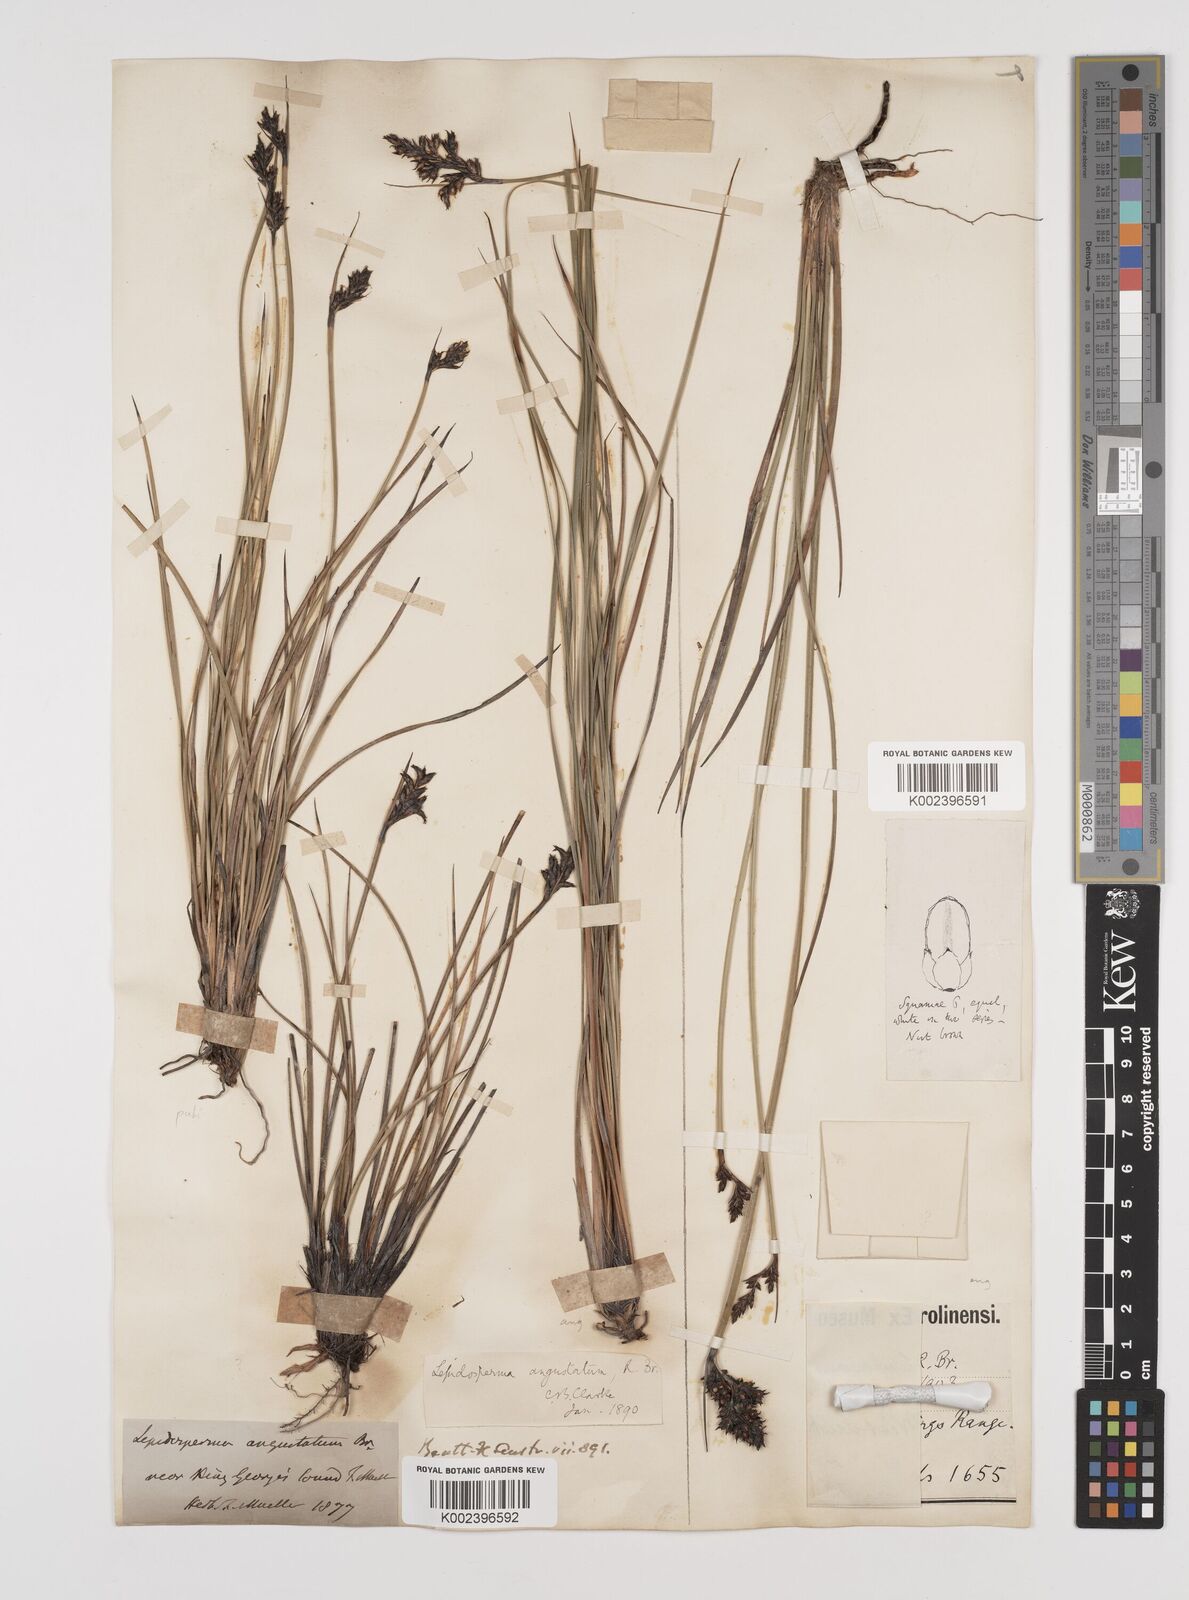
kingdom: Plantae
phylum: Tracheophyta
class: Liliopsida
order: Poales
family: Cyperaceae
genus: Lepidosperma
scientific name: Lepidosperma angustatum
